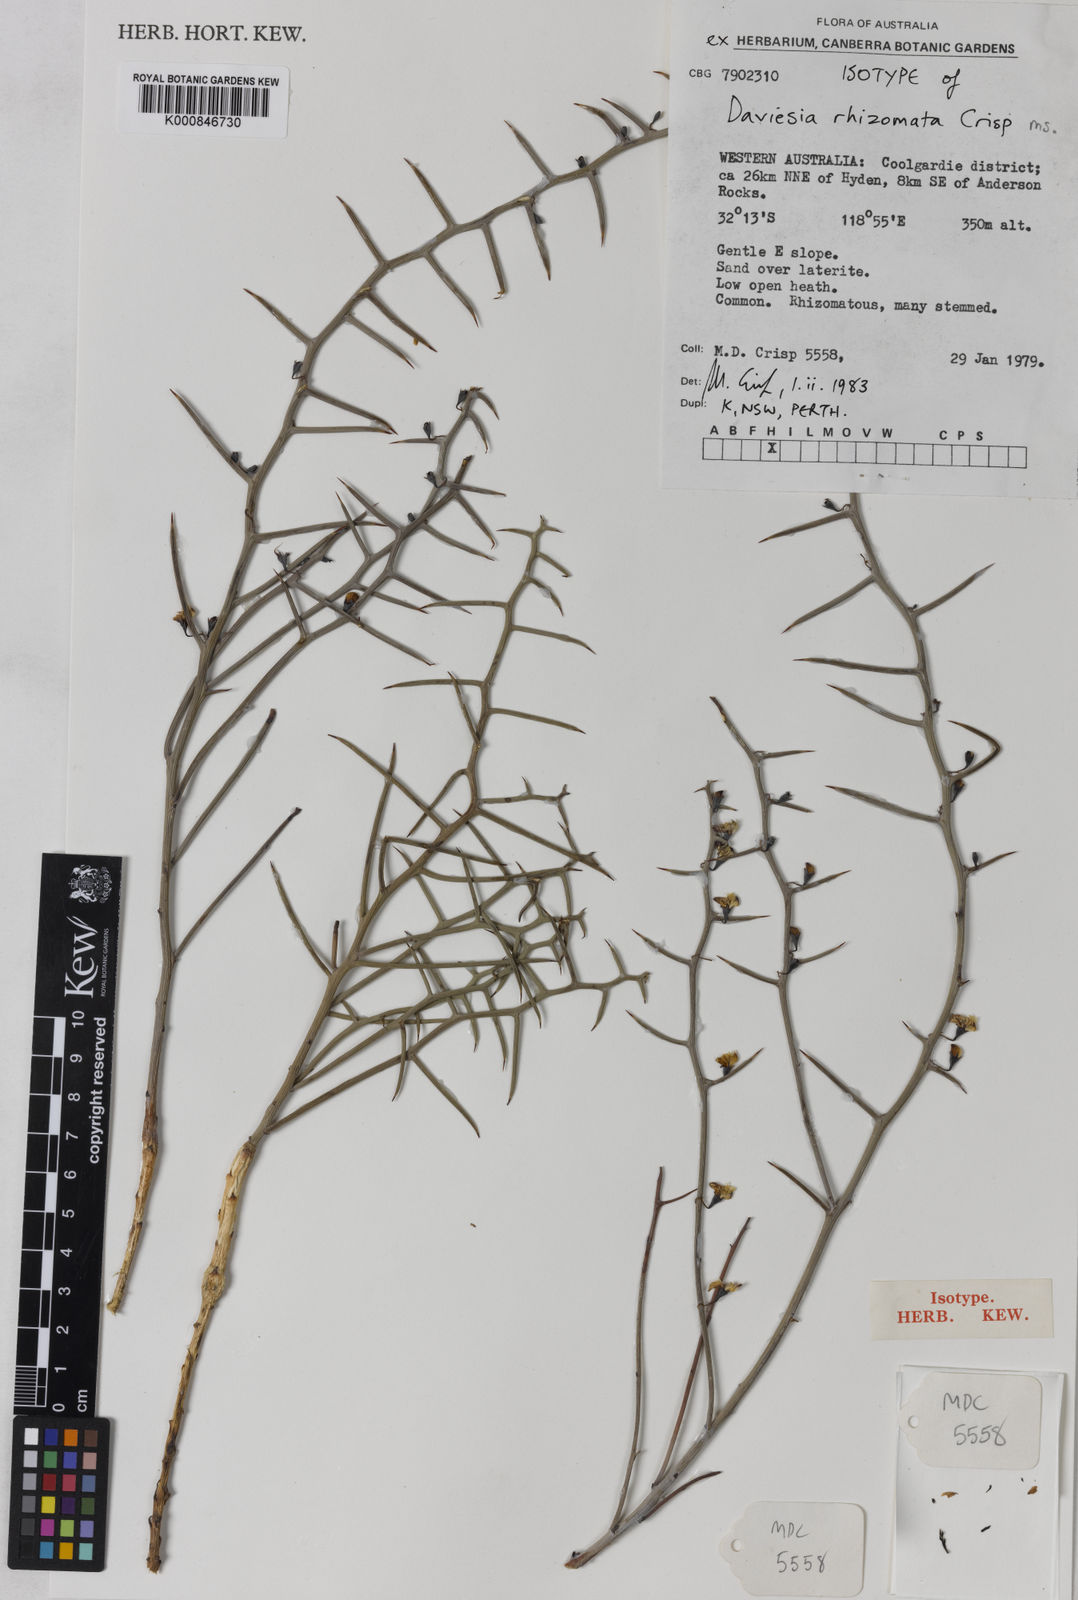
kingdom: Plantae
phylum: Tracheophyta
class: Magnoliopsida
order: Fabales
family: Fabaceae
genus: Daviesia
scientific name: Daviesia rhizomata
